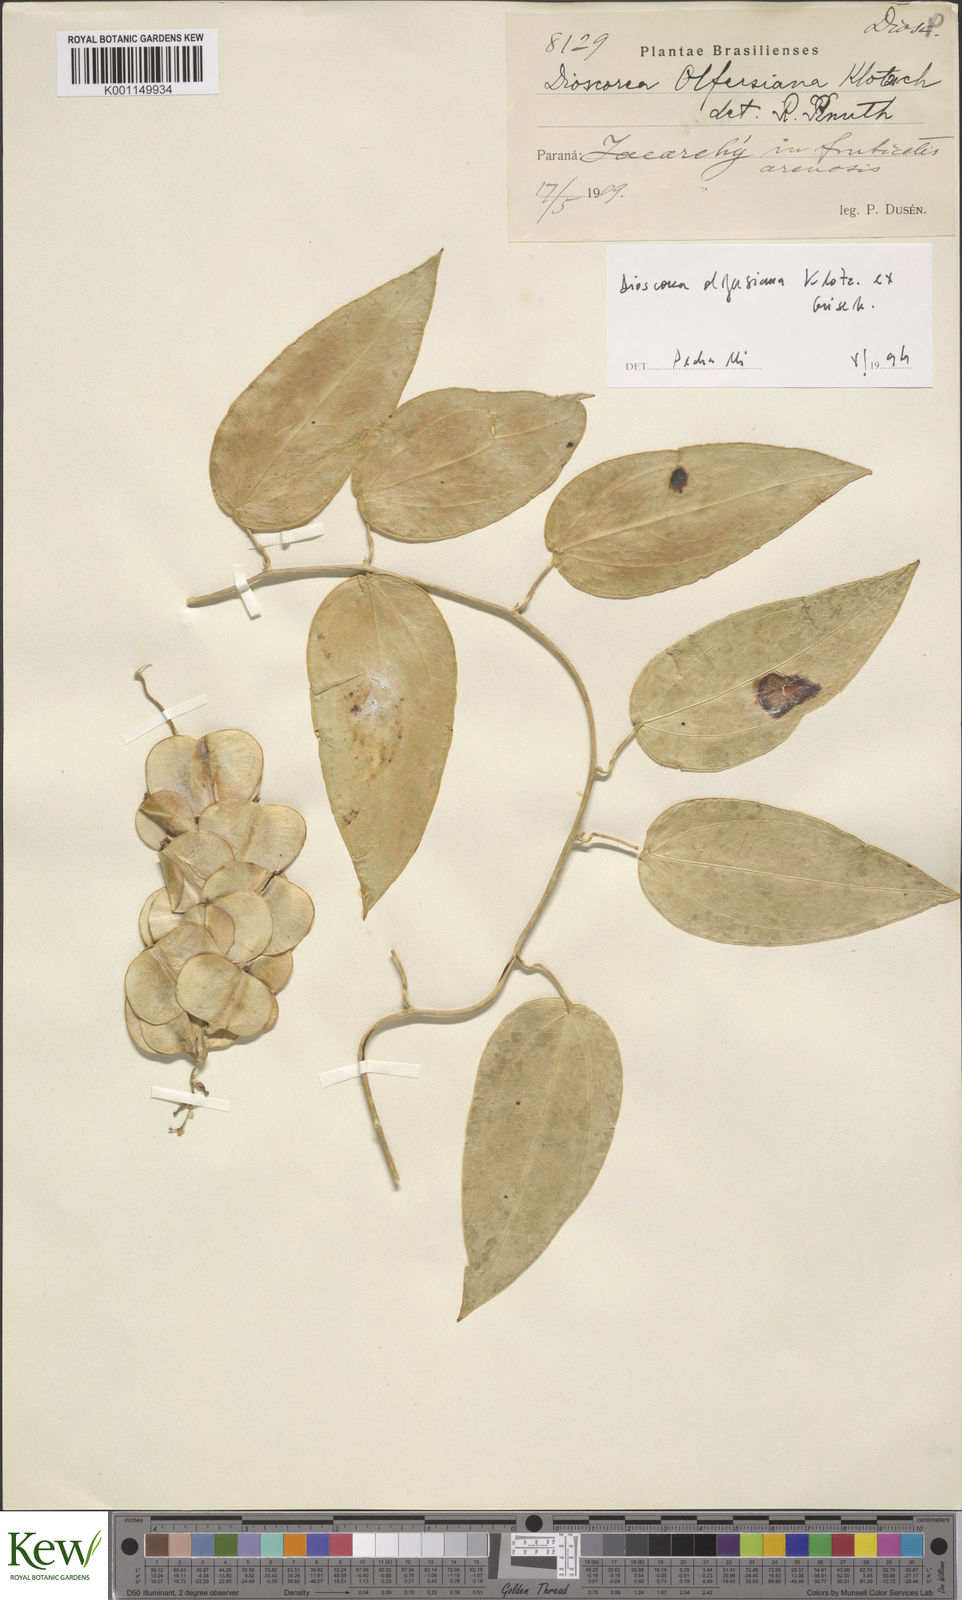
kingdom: Plantae
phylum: Tracheophyta
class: Liliopsida
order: Dioscoreales
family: Dioscoreaceae
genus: Dioscorea
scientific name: Dioscorea olfersiana
